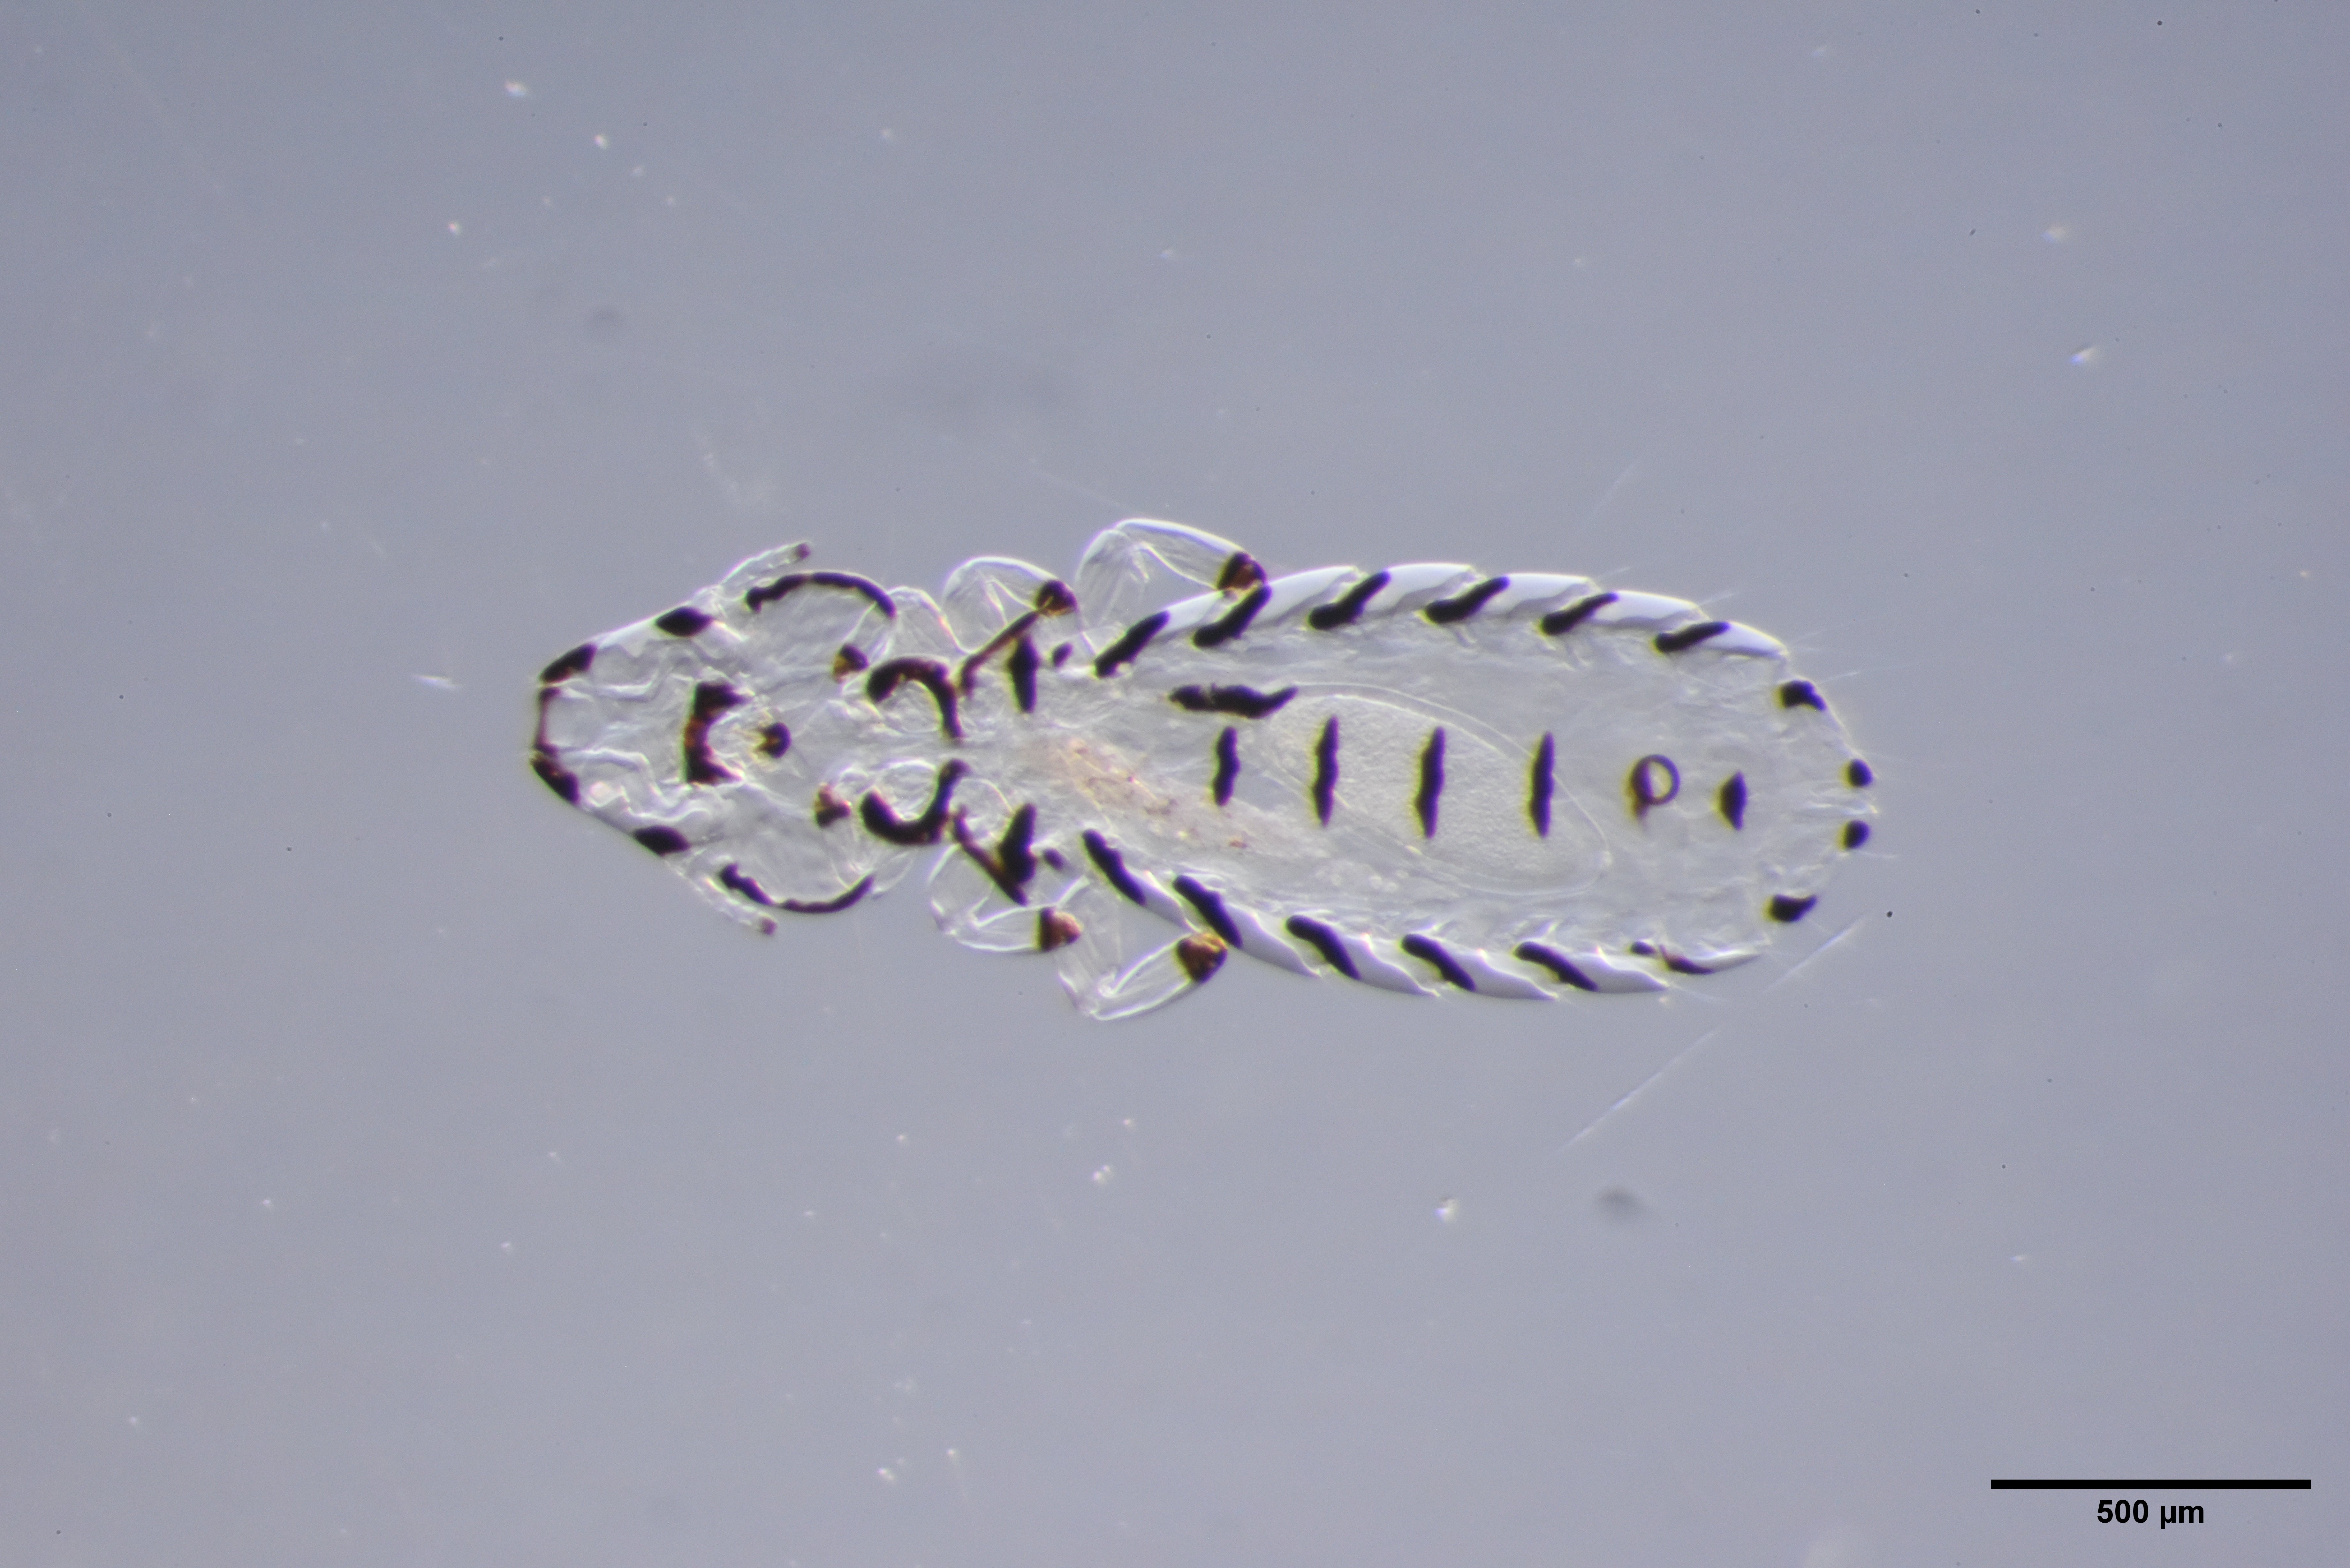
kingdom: Animalia
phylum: Arthropoda
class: Insecta
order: Psocodea
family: Philopteridae
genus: Quadraceps
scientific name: Quadraceps ornatus
